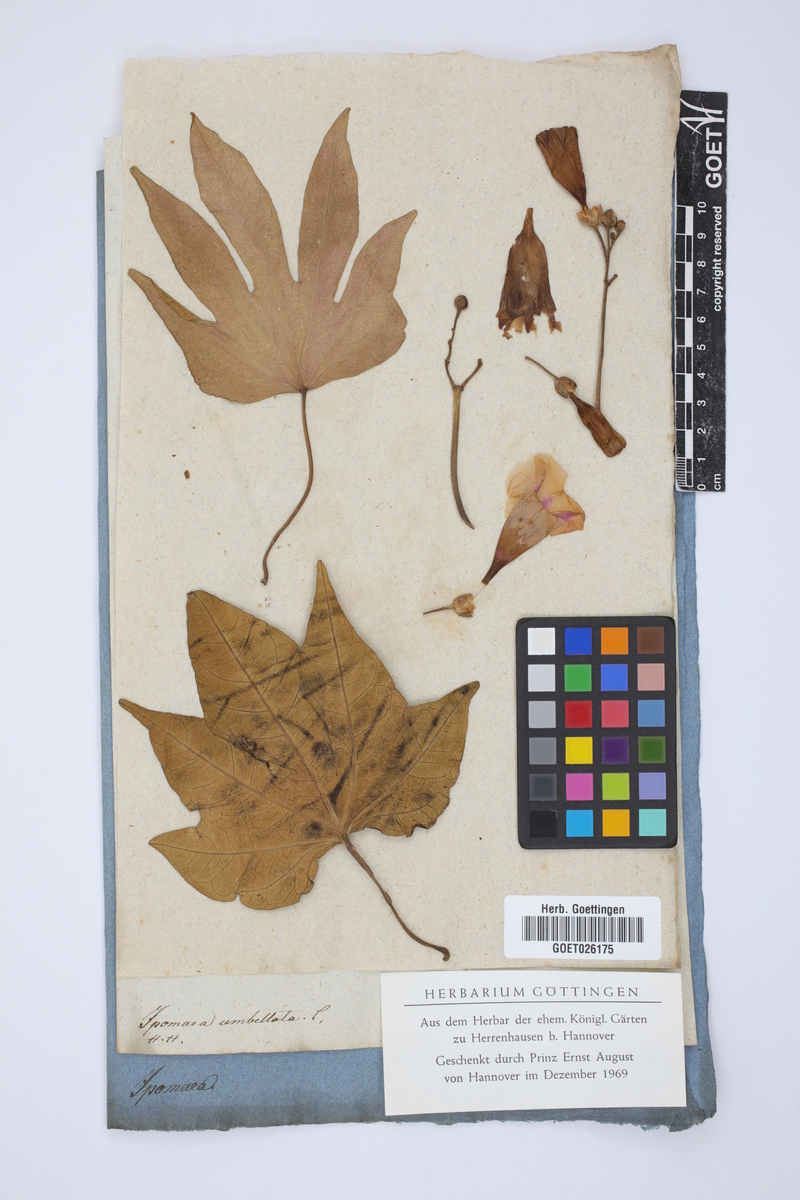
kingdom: Plantae
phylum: Tracheophyta
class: Magnoliopsida
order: Solanales
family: Convolvulaceae
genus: Ipomoea
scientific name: Ipomoea carolina
